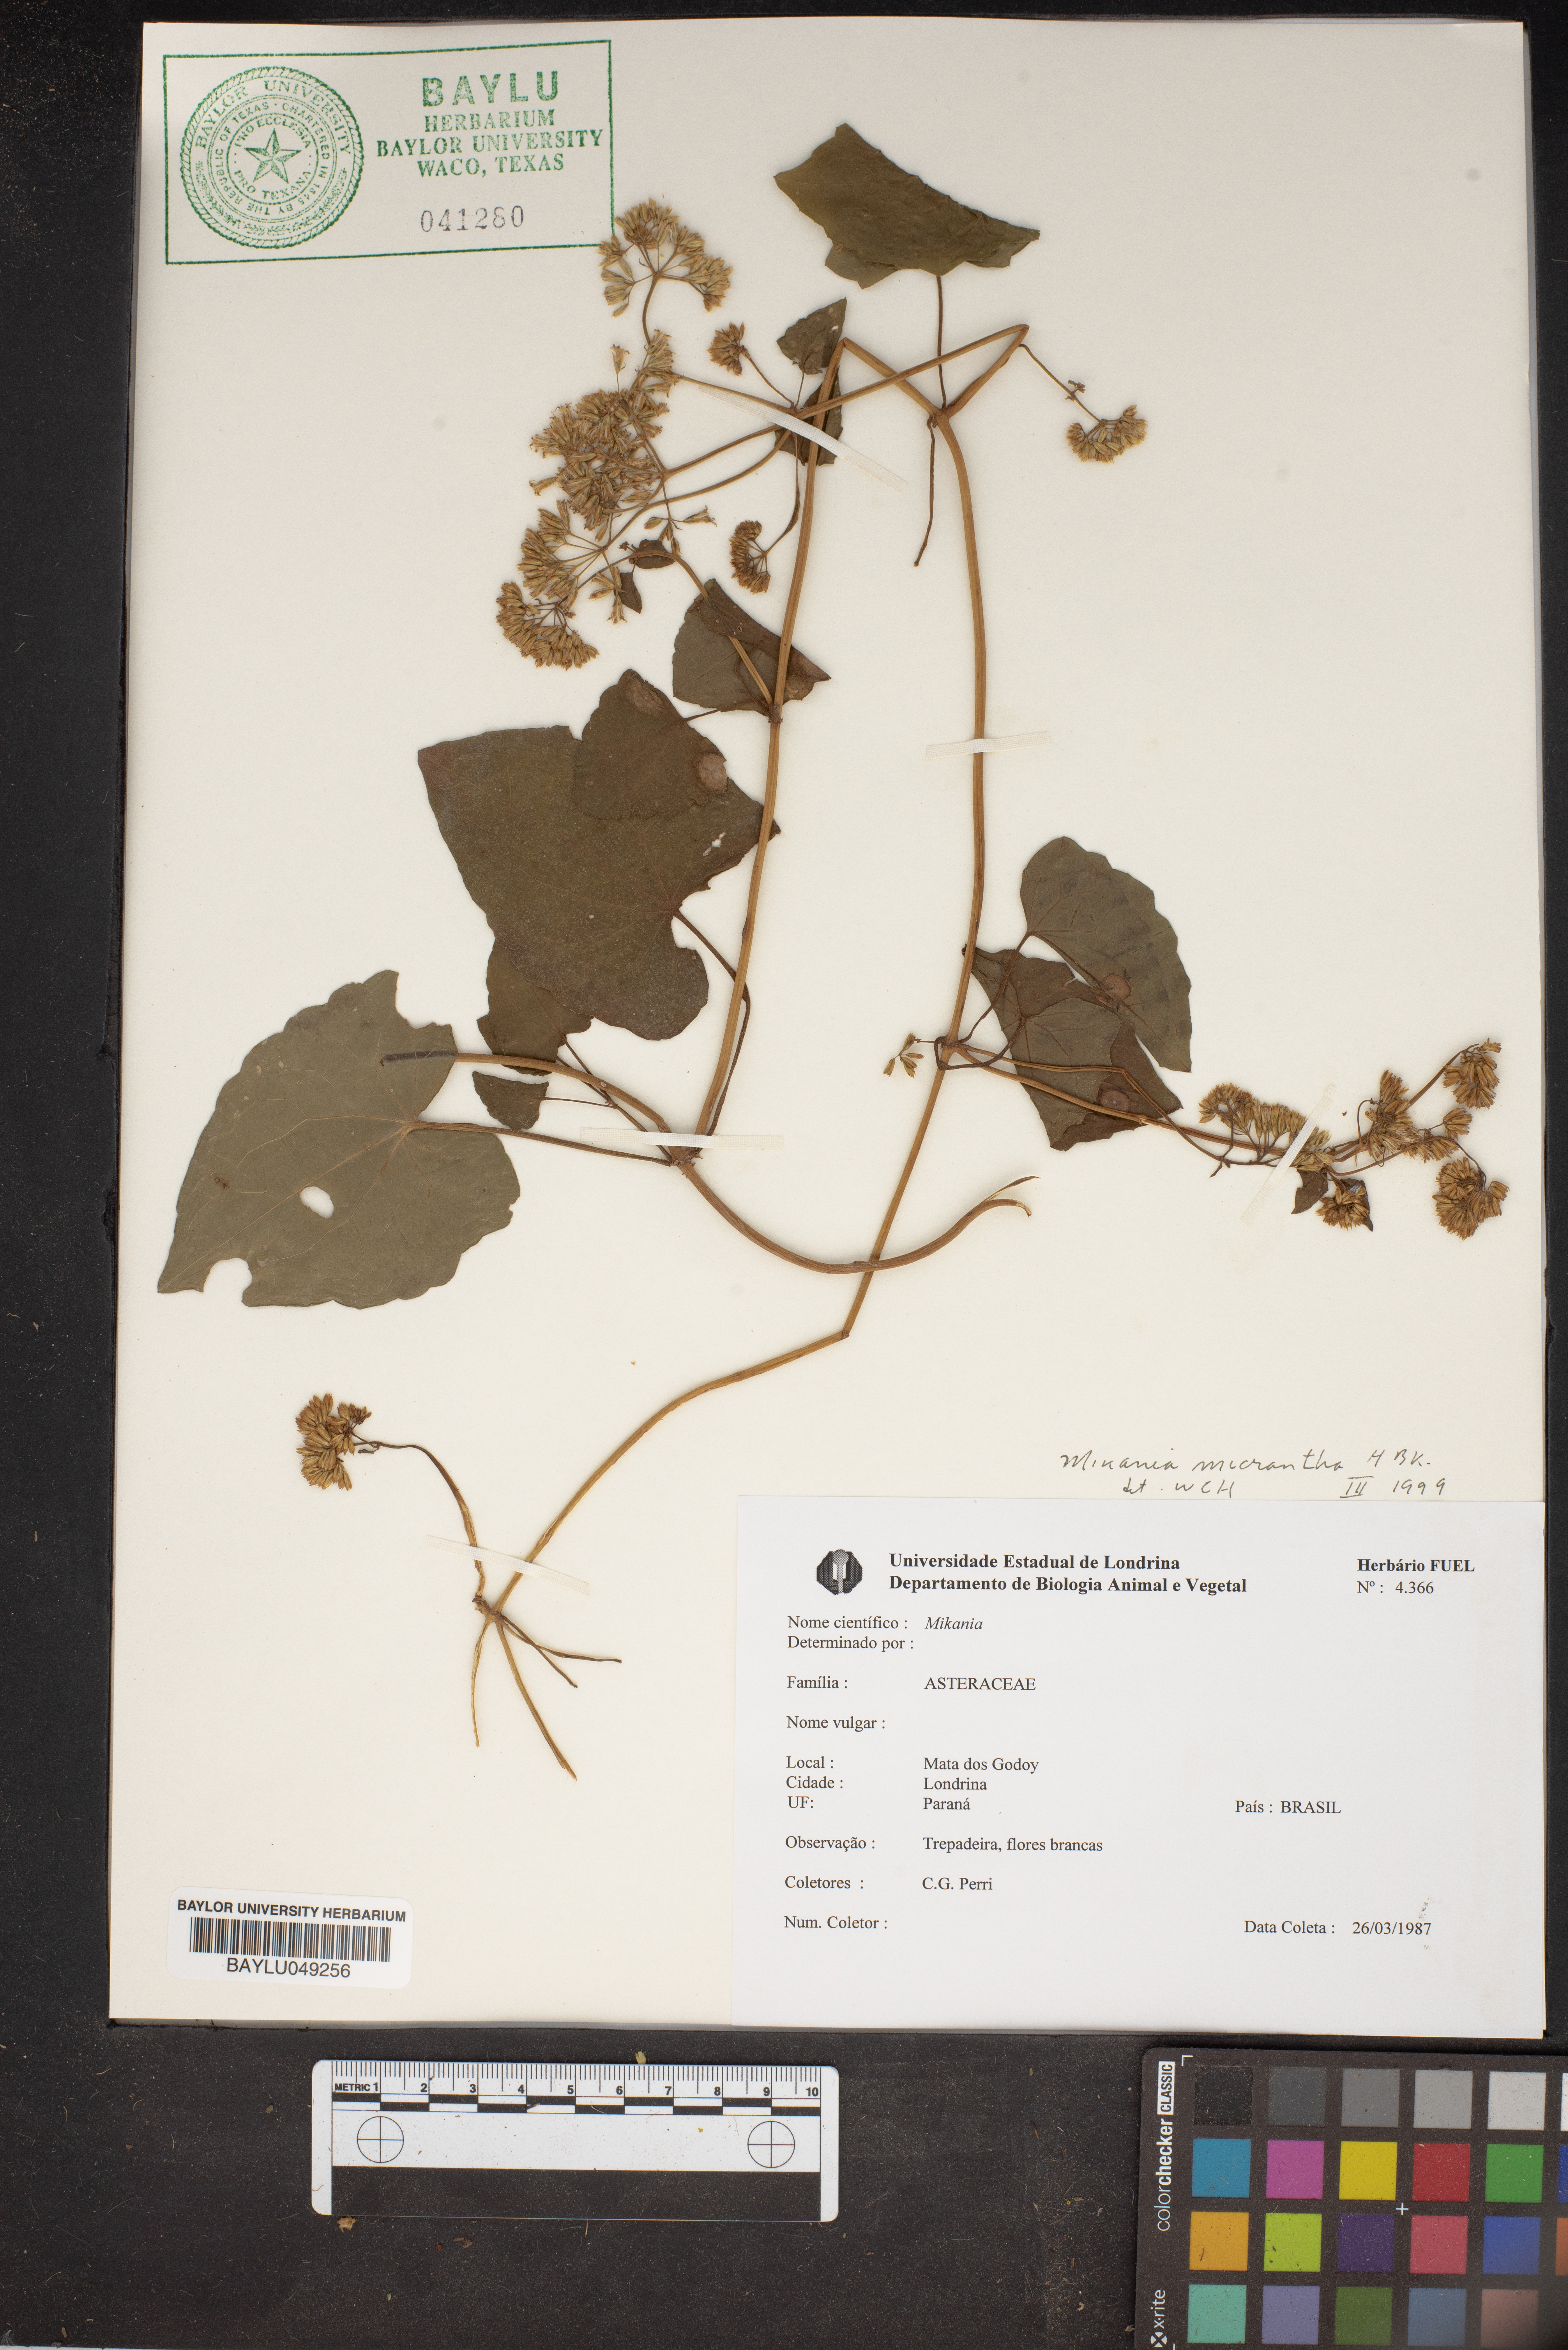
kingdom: Plantae
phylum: Tracheophyta
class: Magnoliopsida
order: Asterales
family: Asteraceae
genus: Mikania
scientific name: Mikania micrantha
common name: Mile-a-minute
